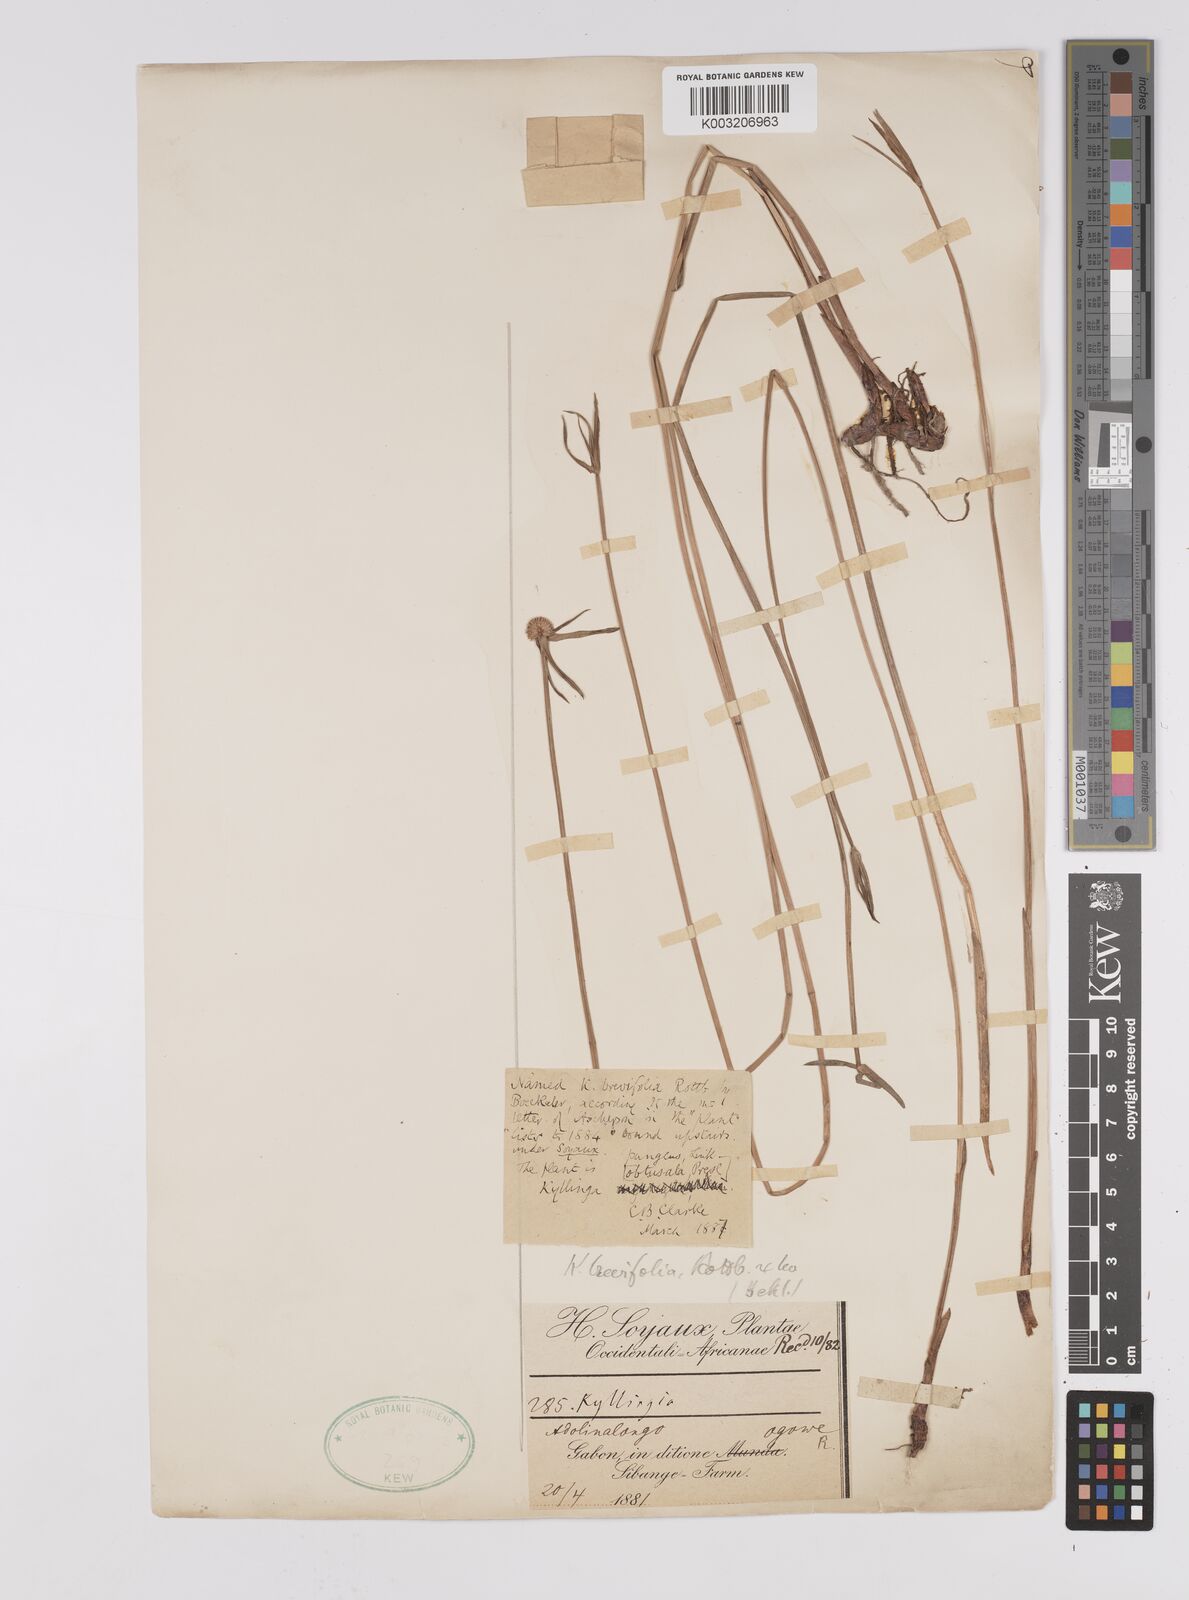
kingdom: Plantae
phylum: Tracheophyta
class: Liliopsida
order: Poales
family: Cyperaceae
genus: Cyperus
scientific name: Cyperus brevifolius
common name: Globe kyllinga
